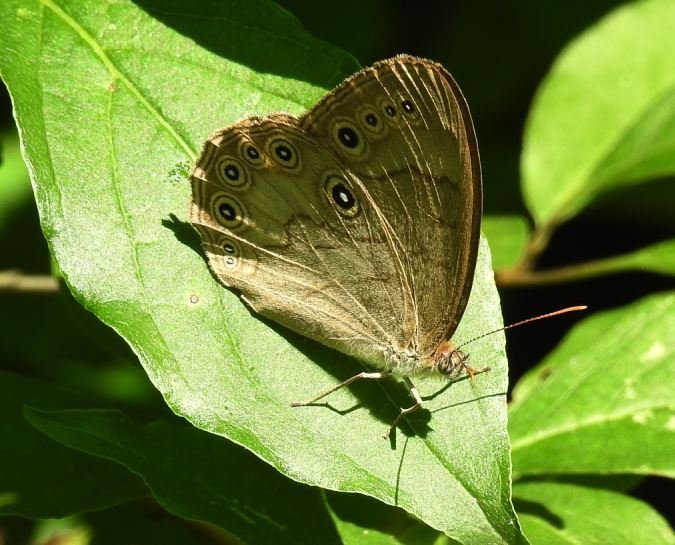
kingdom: Animalia
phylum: Arthropoda
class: Insecta
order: Lepidoptera
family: Nymphalidae
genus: Lethe
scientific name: Lethe eurydice
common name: Eyed Brown
